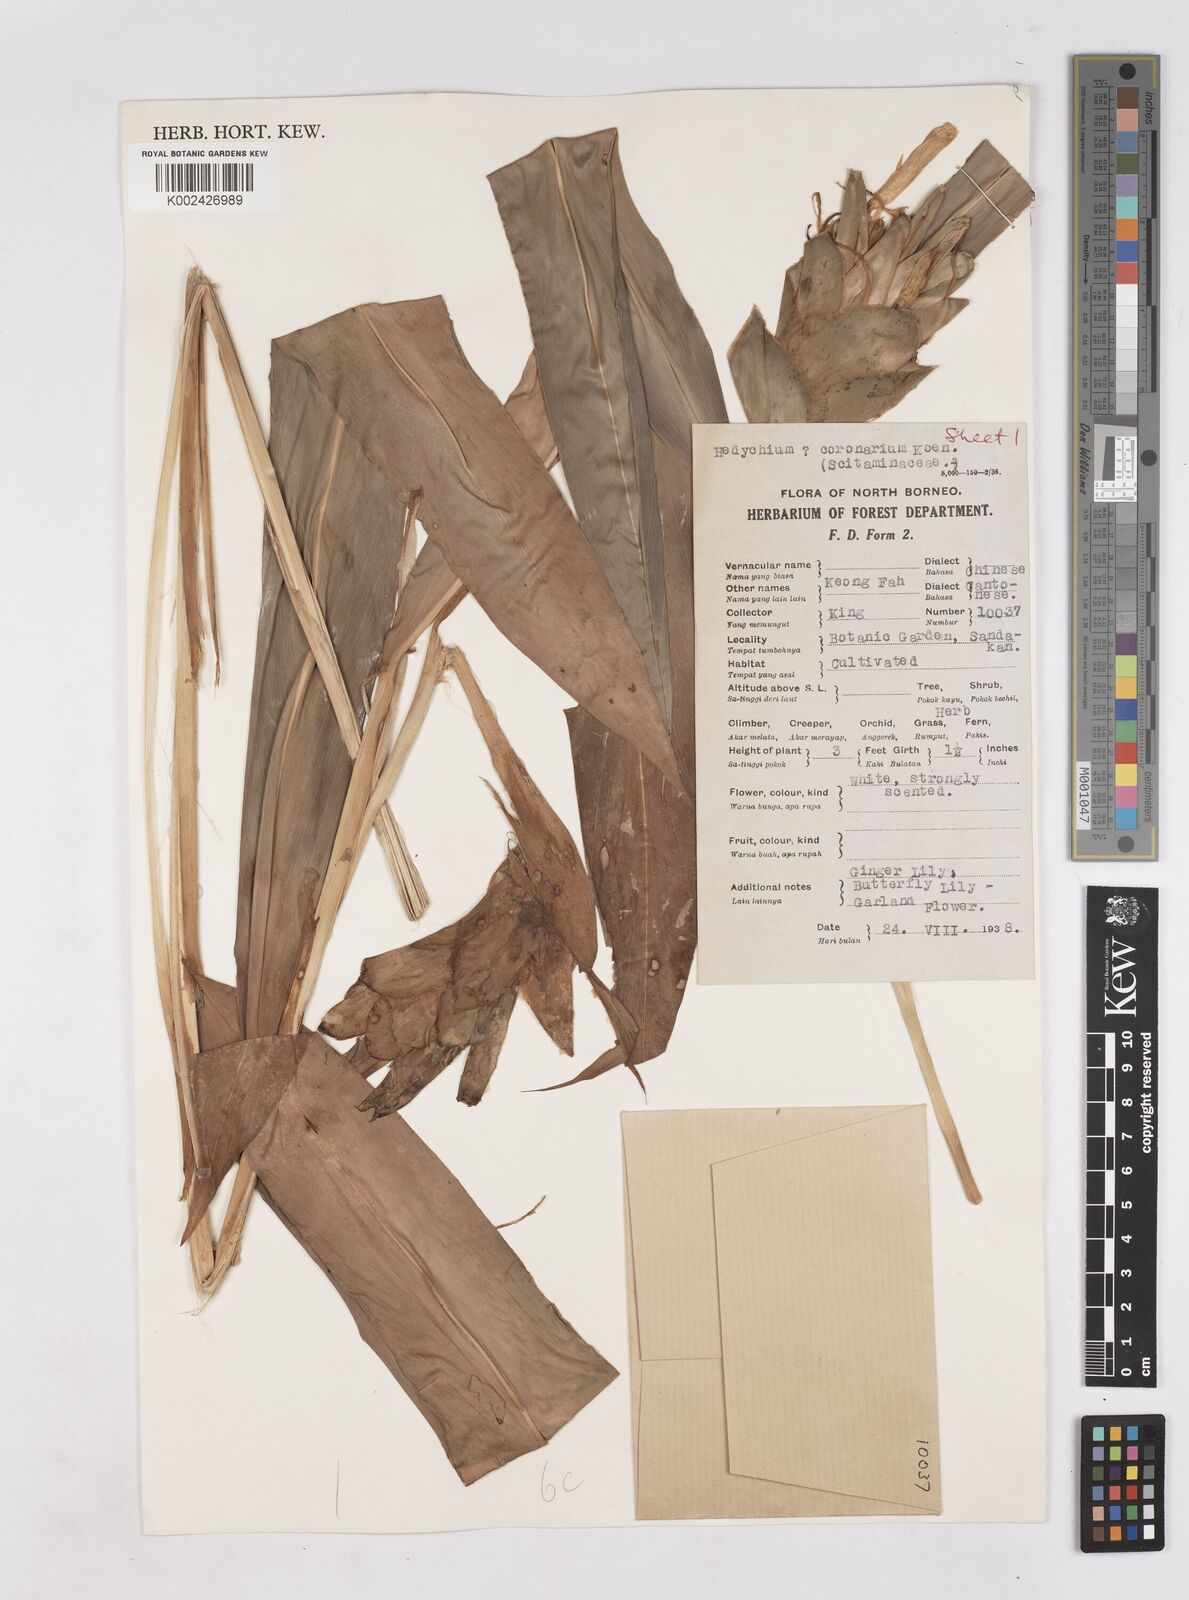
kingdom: Plantae
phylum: Tracheophyta
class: Liliopsida
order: Zingiberales
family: Zingiberaceae
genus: Hedychium
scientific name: Hedychium coronarium
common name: White garland-lily
